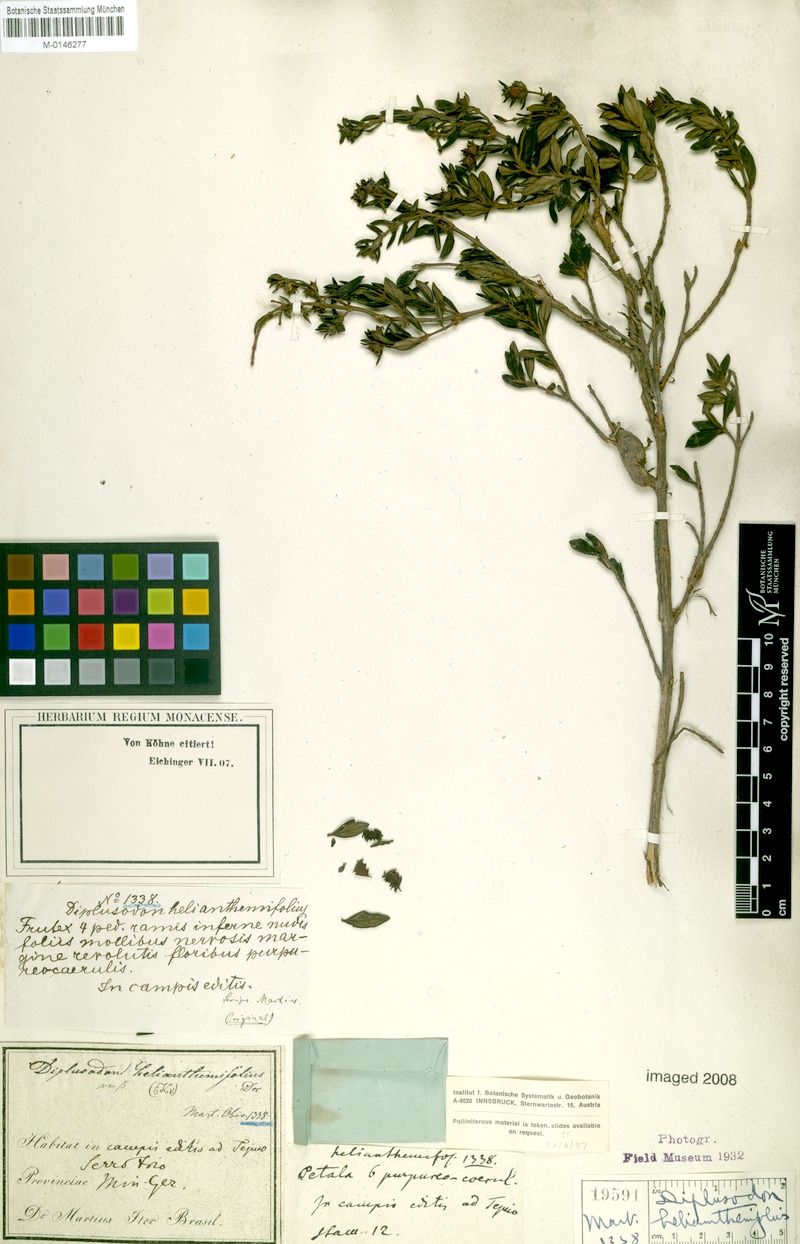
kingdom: Plantae
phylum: Tracheophyta
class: Magnoliopsida
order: Myrtales
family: Lythraceae
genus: Diplusodon
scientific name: Diplusodon helianthemifolius
